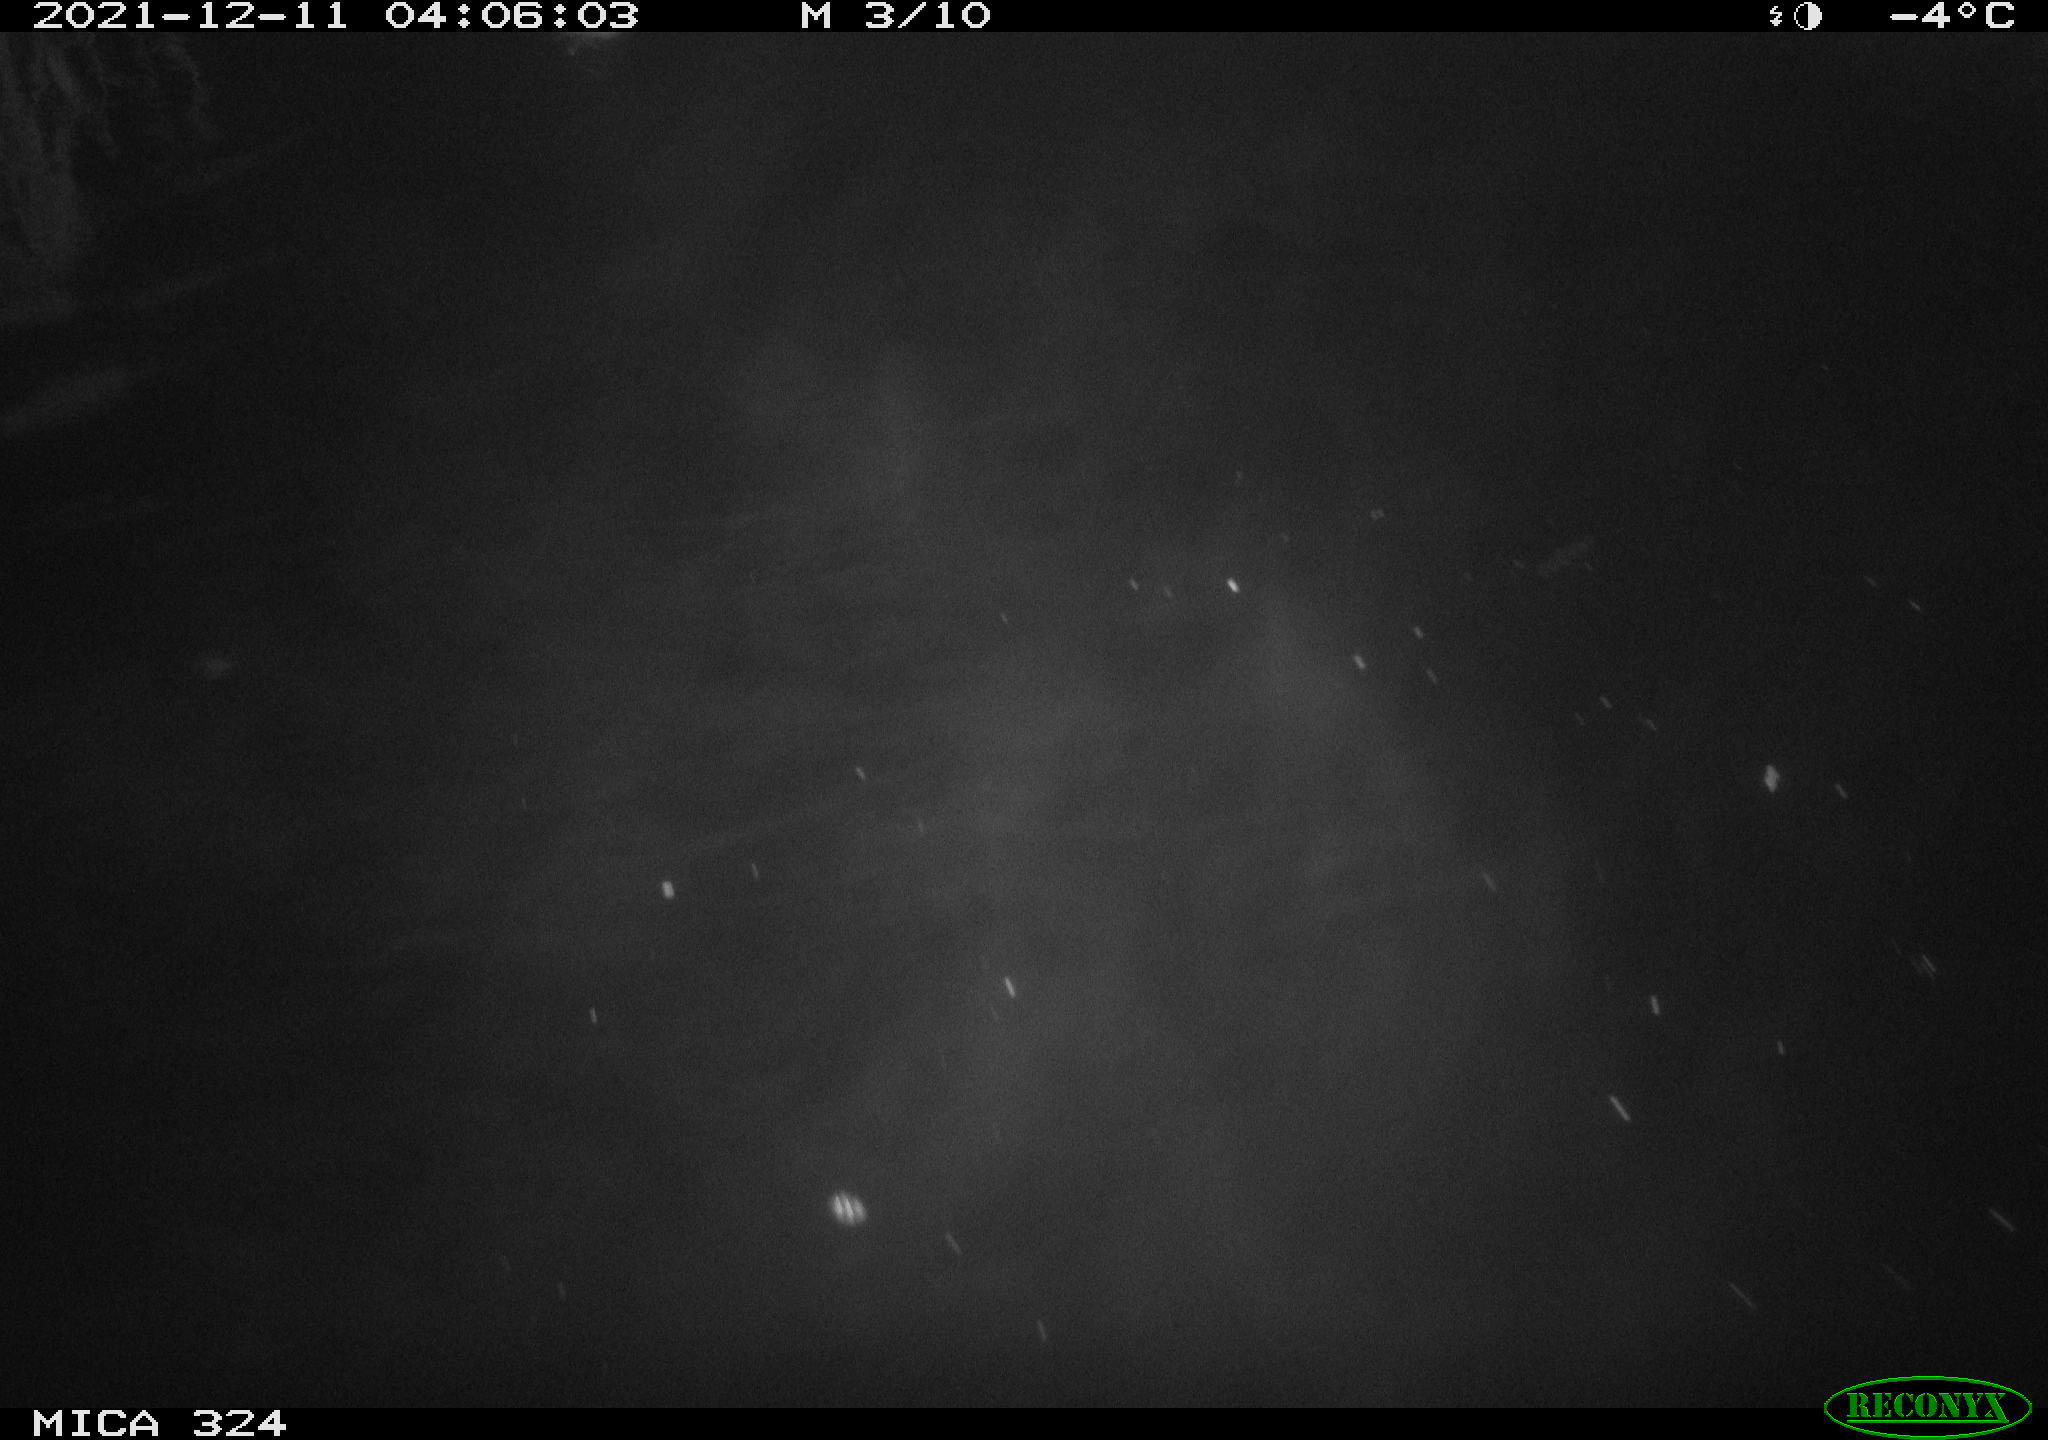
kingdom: Animalia
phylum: Chordata
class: Mammalia
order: Rodentia
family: Cricetidae
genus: Ondatra
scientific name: Ondatra zibethicus
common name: Muskrat
